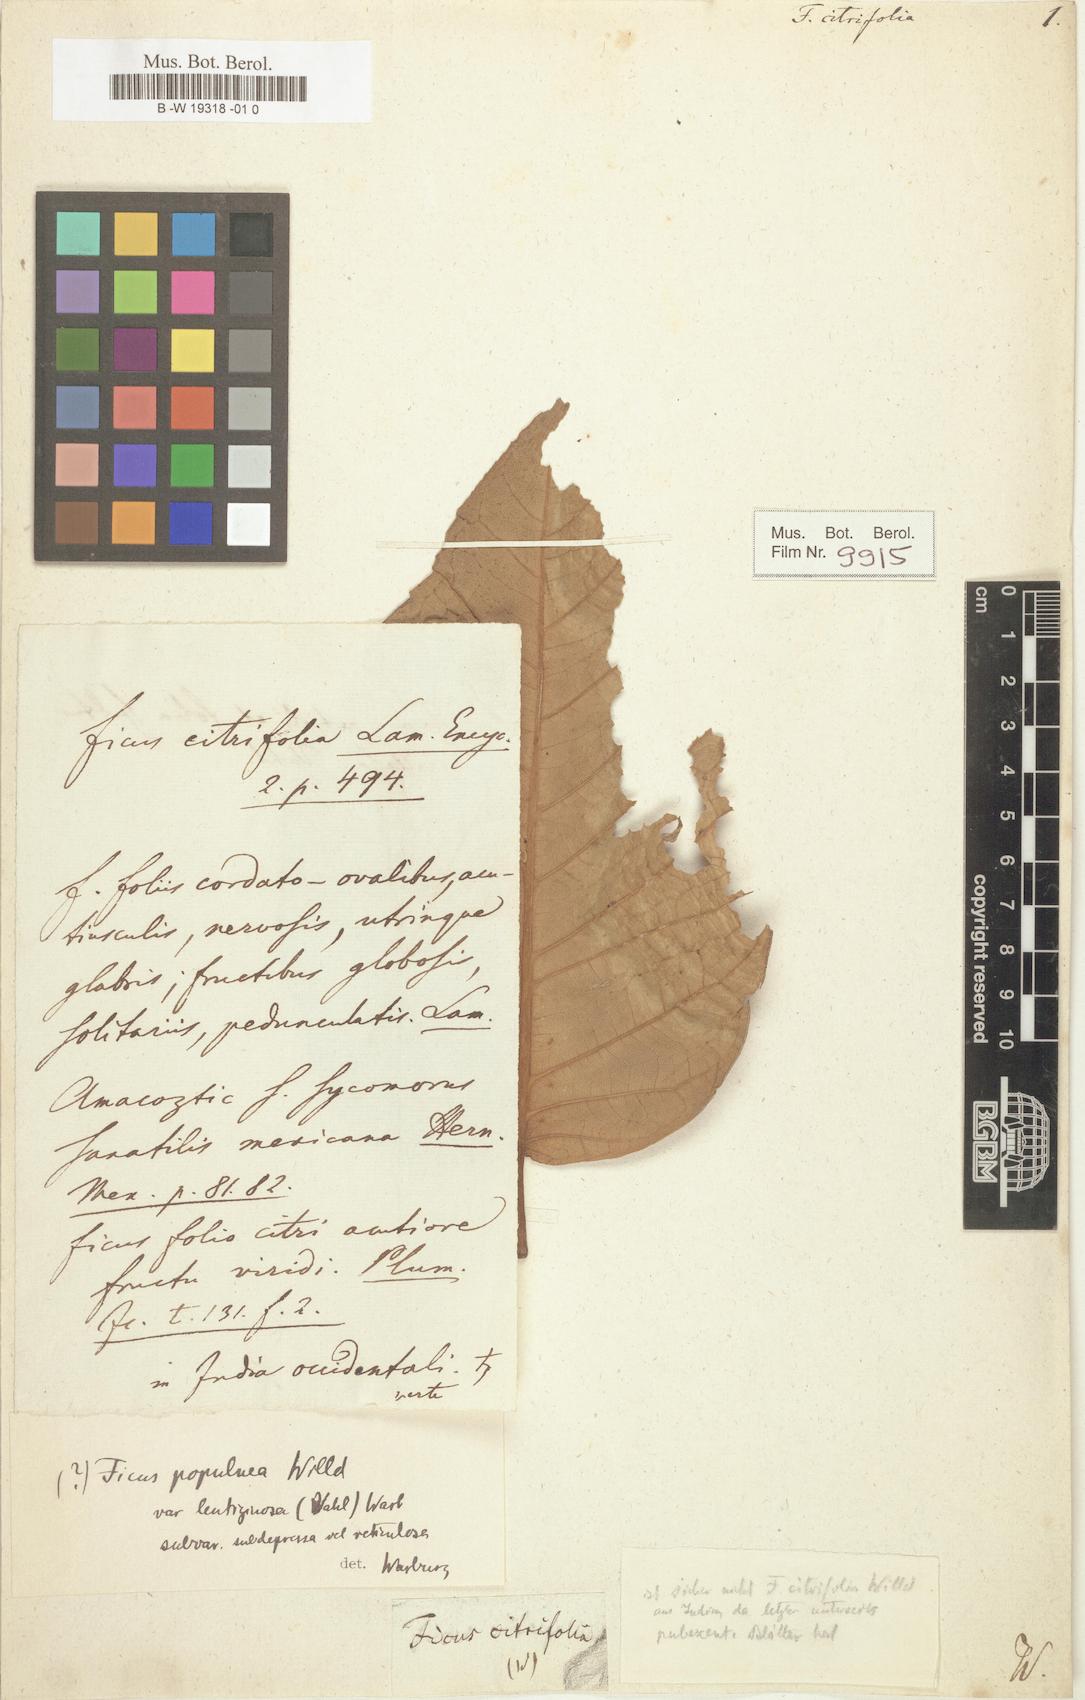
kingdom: Plantae
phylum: Tracheophyta
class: Magnoliopsida
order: Rosales
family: Moraceae
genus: Ficus
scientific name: Ficus citrifolia
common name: Strangler fig
